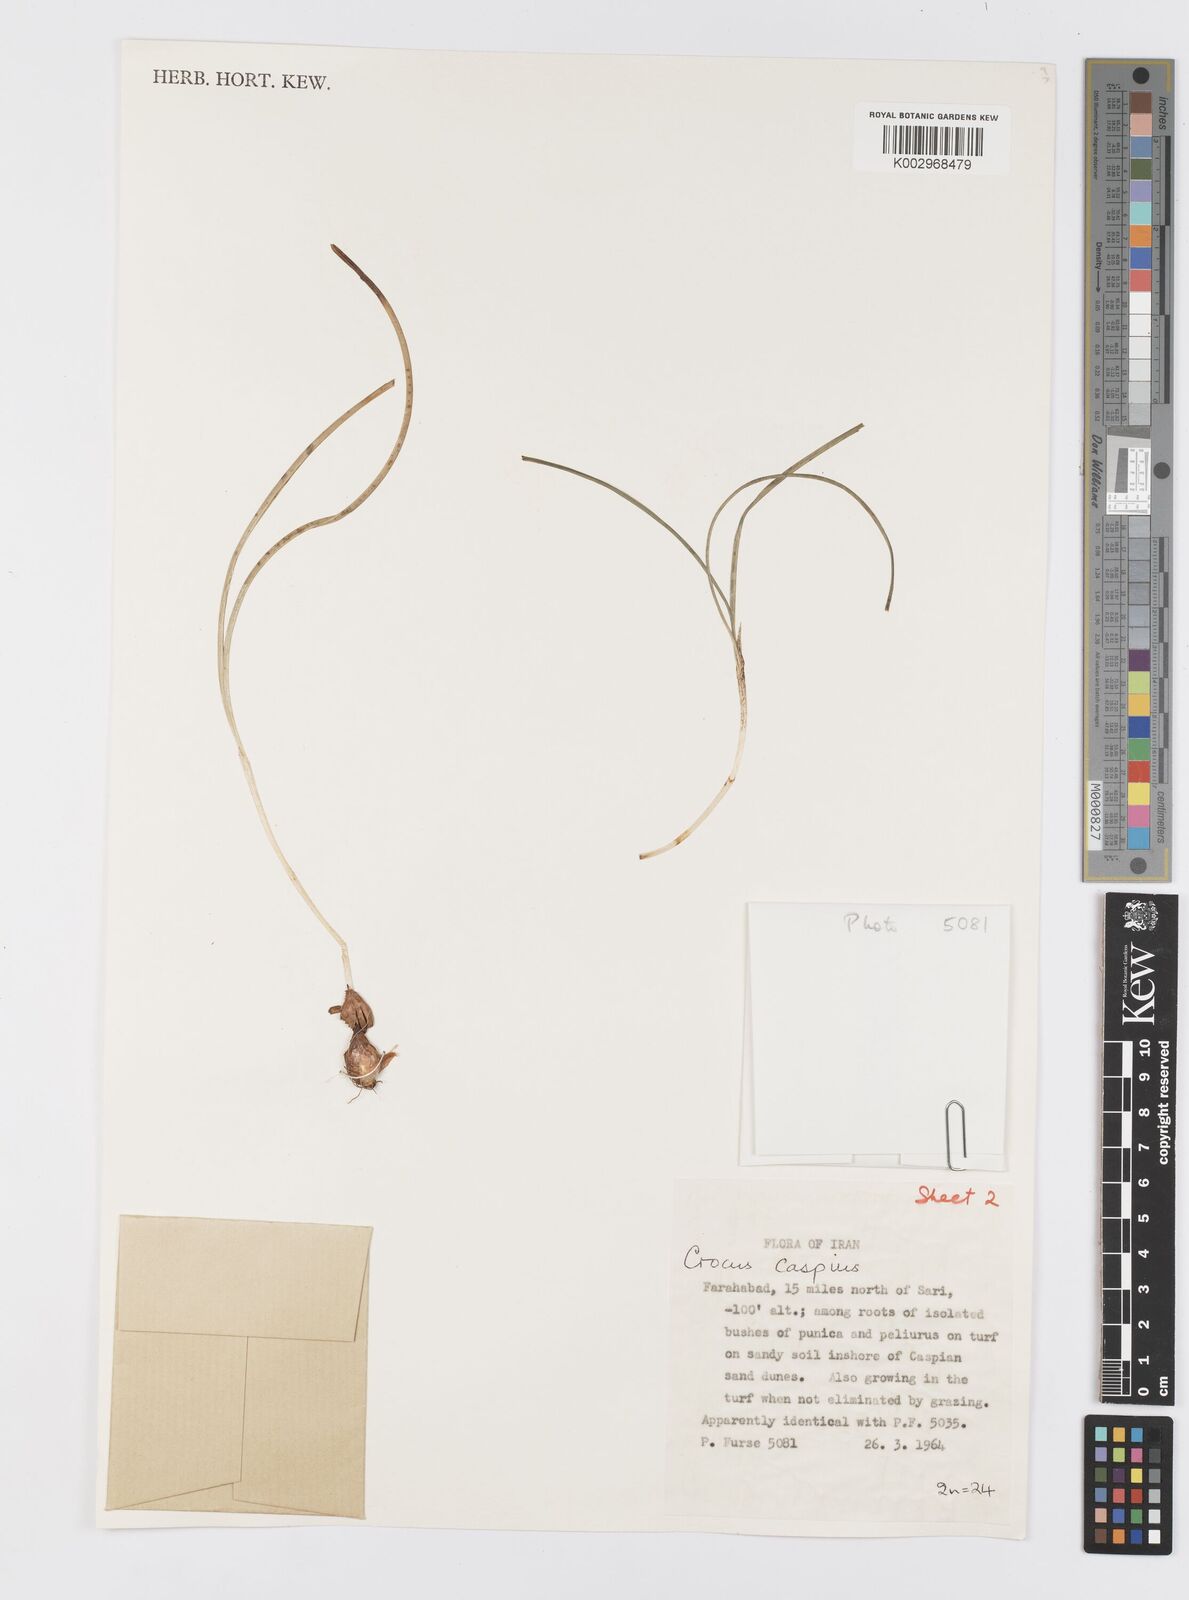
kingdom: Plantae
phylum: Tracheophyta
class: Liliopsida
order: Asparagales
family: Iridaceae
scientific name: Iridaceae
